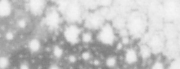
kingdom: Animalia
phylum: Chordata
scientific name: Chordata
